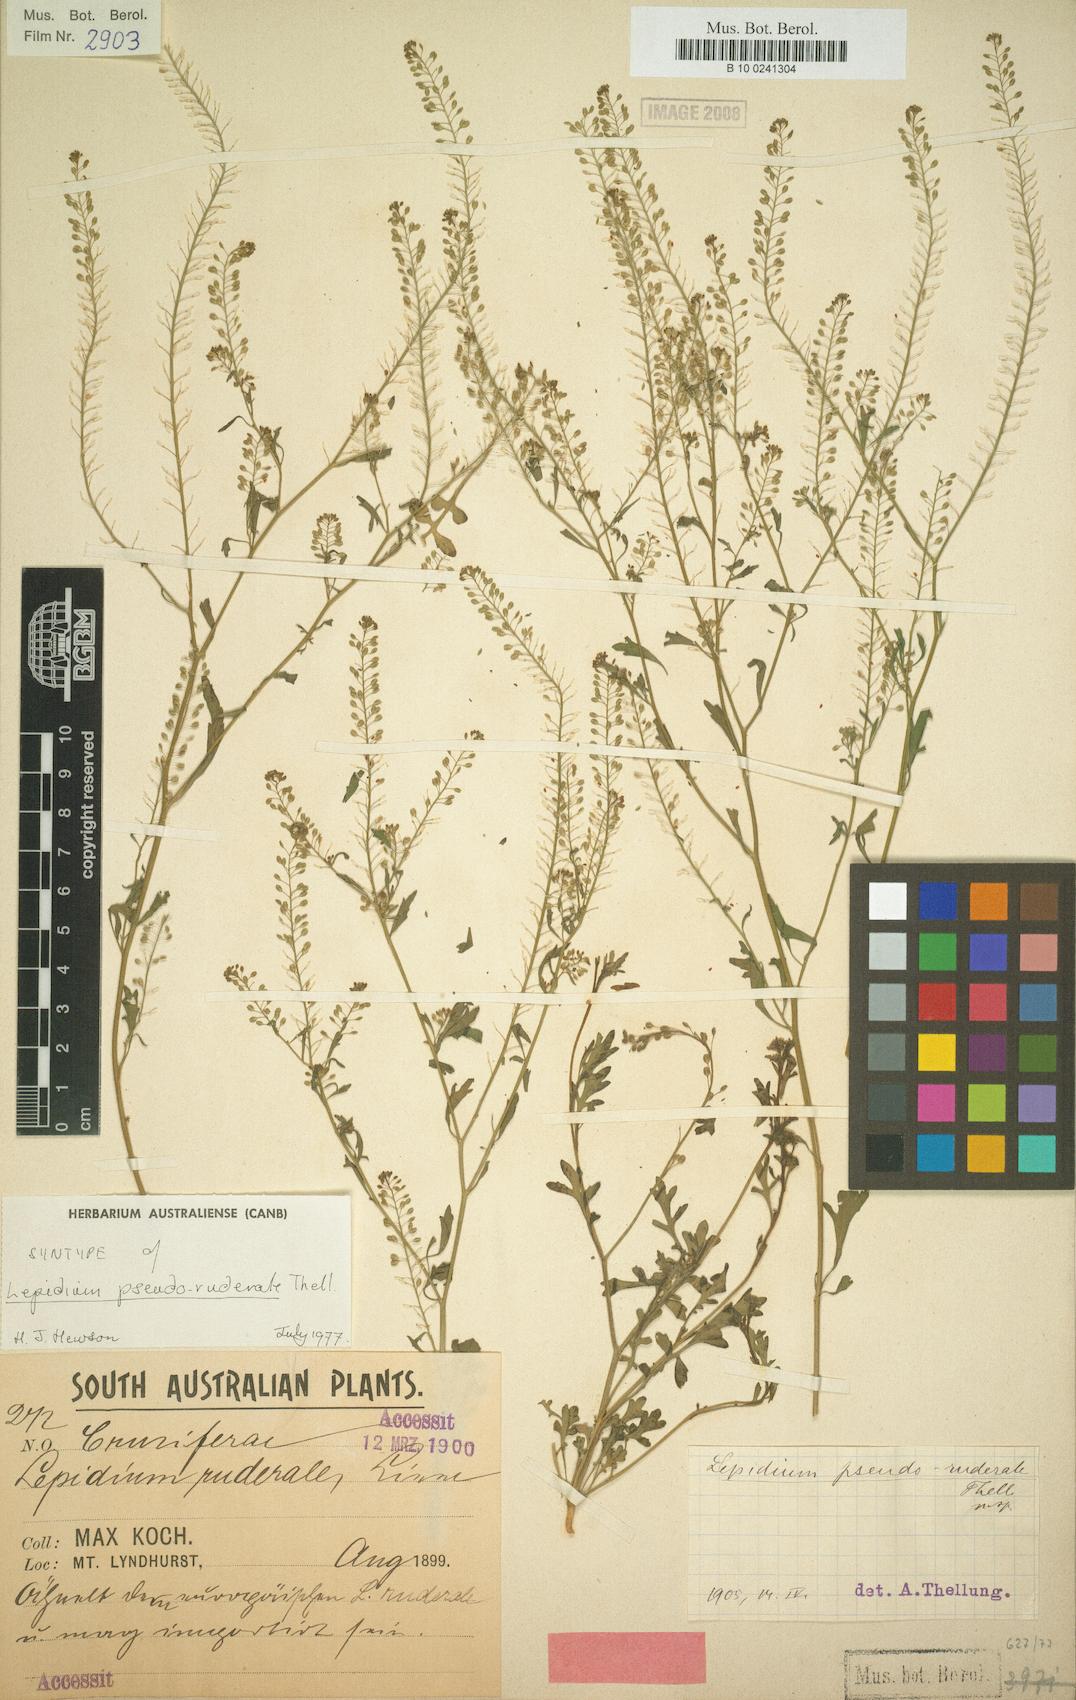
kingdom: Plantae
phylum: Tracheophyta
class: Magnoliopsida
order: Brassicales
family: Brassicaceae
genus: Lepidium
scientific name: Lepidium pseudoruderale
